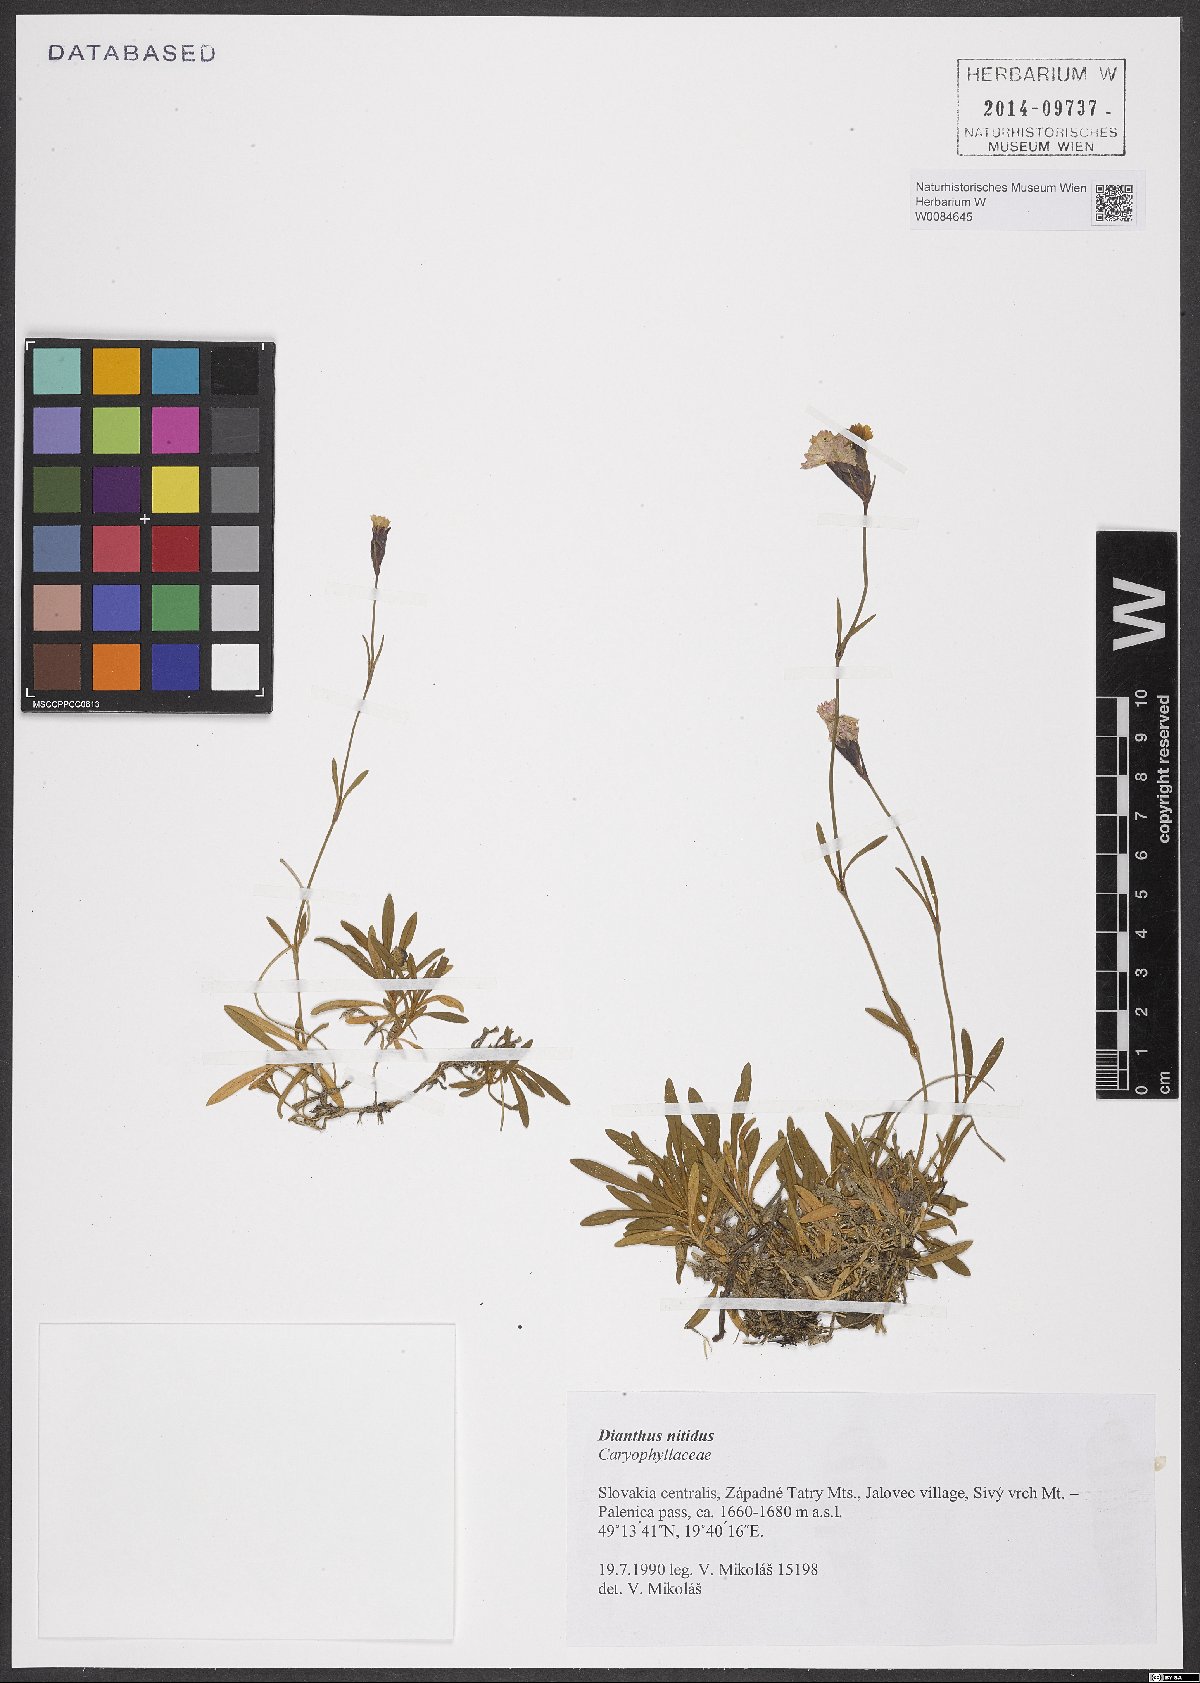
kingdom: Plantae
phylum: Tracheophyta
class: Magnoliopsida
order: Caryophyllales
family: Caryophyllaceae
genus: Dianthus
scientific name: Dianthus nitidus
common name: Carpathian glossy pink
